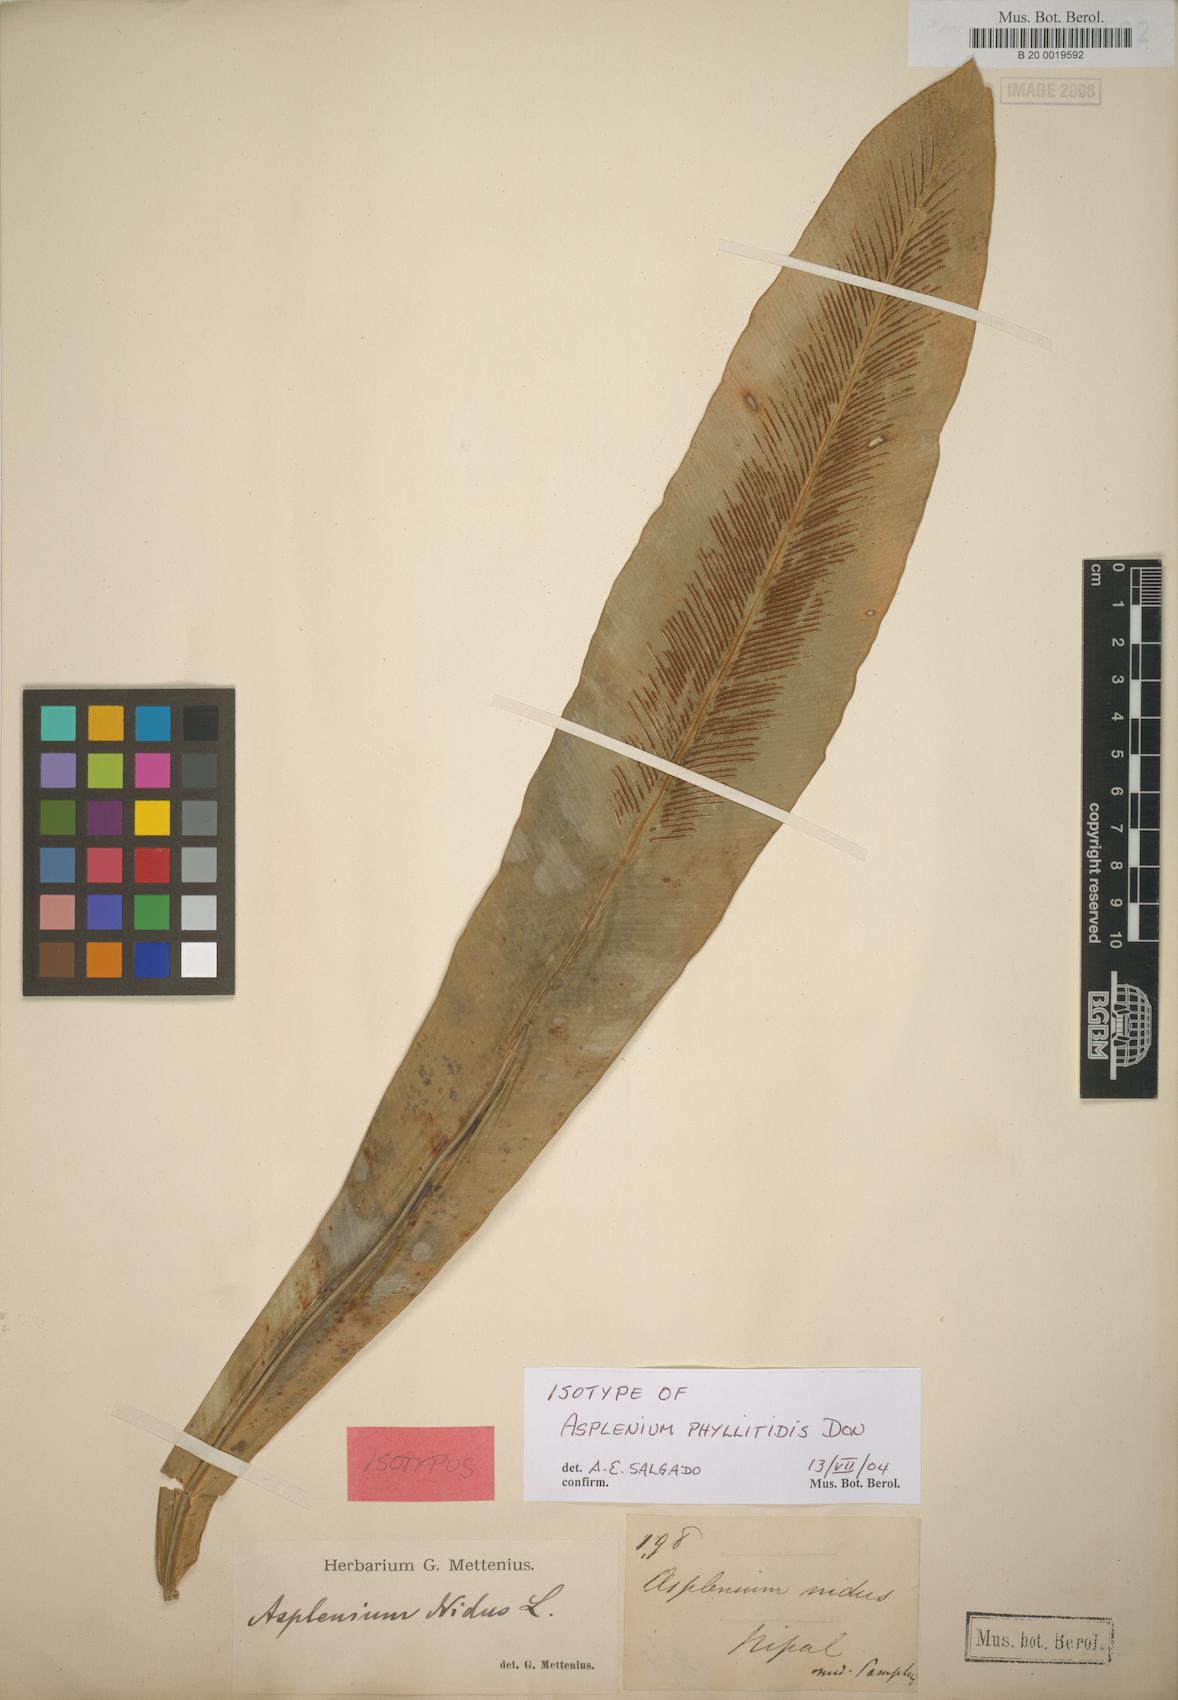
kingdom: Plantae
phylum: Tracheophyta
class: Polypodiopsida
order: Polypodiales
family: Aspleniaceae
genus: Asplenium
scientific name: Asplenium phyllitidis
